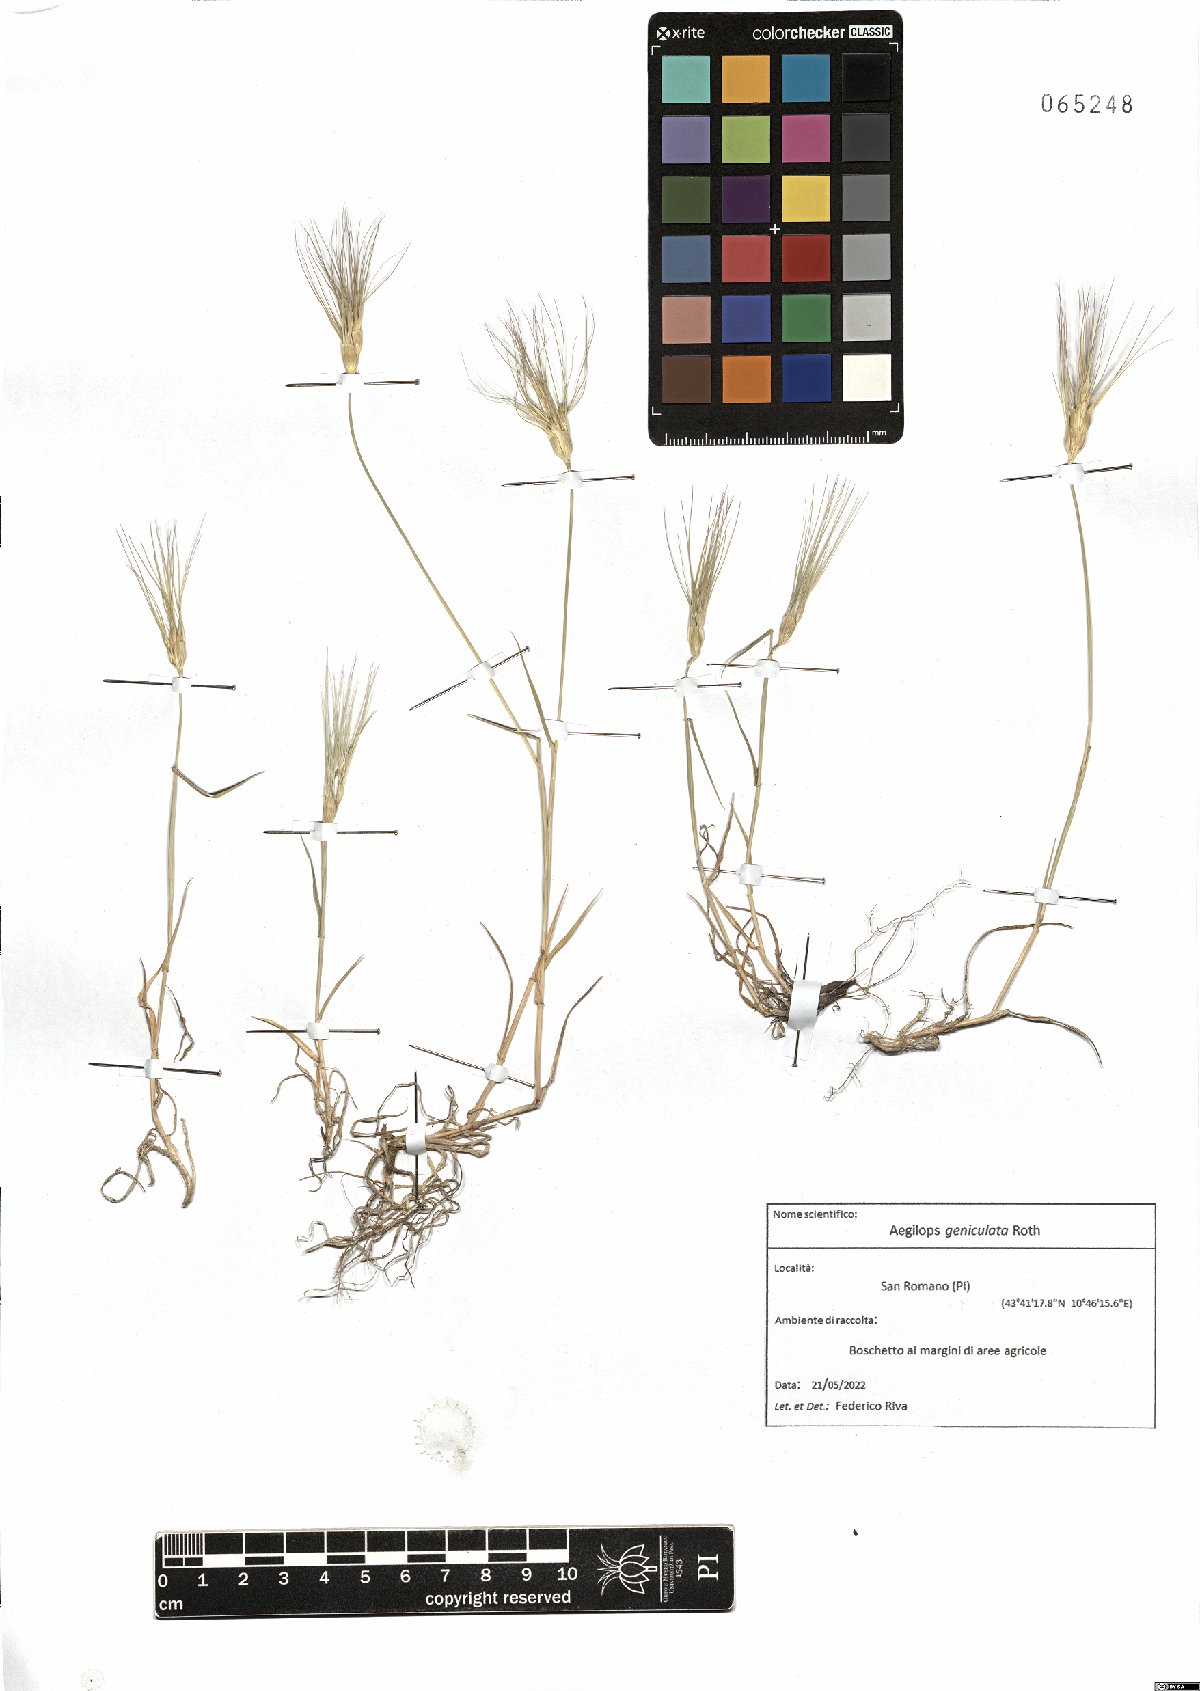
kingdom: Plantae
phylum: Tracheophyta
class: Liliopsida
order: Poales
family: Poaceae
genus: Aegilops
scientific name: Aegilops geniculata
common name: Ovate goat grass
